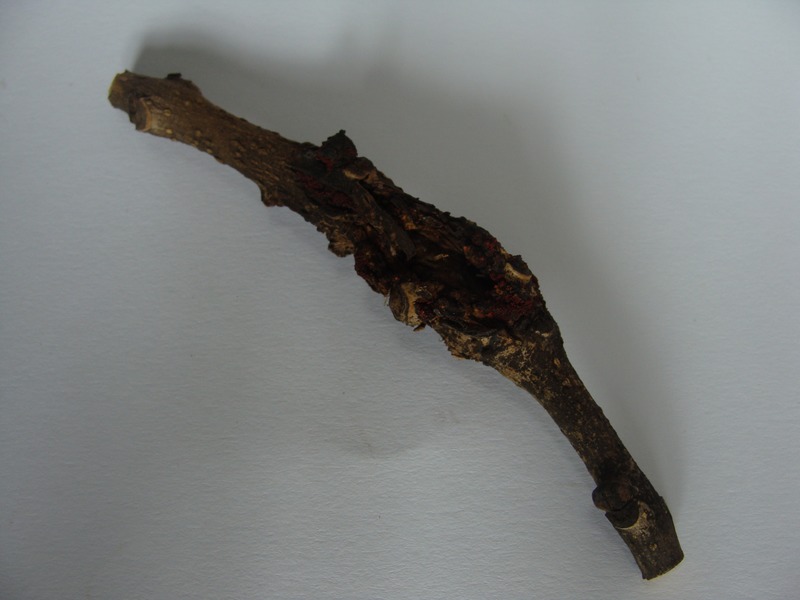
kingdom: Plantae
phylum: Tracheophyta
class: Magnoliopsida
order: Lamiales
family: Oleaceae
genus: Fraxinus
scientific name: Fraxinus excelsior
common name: European ash
